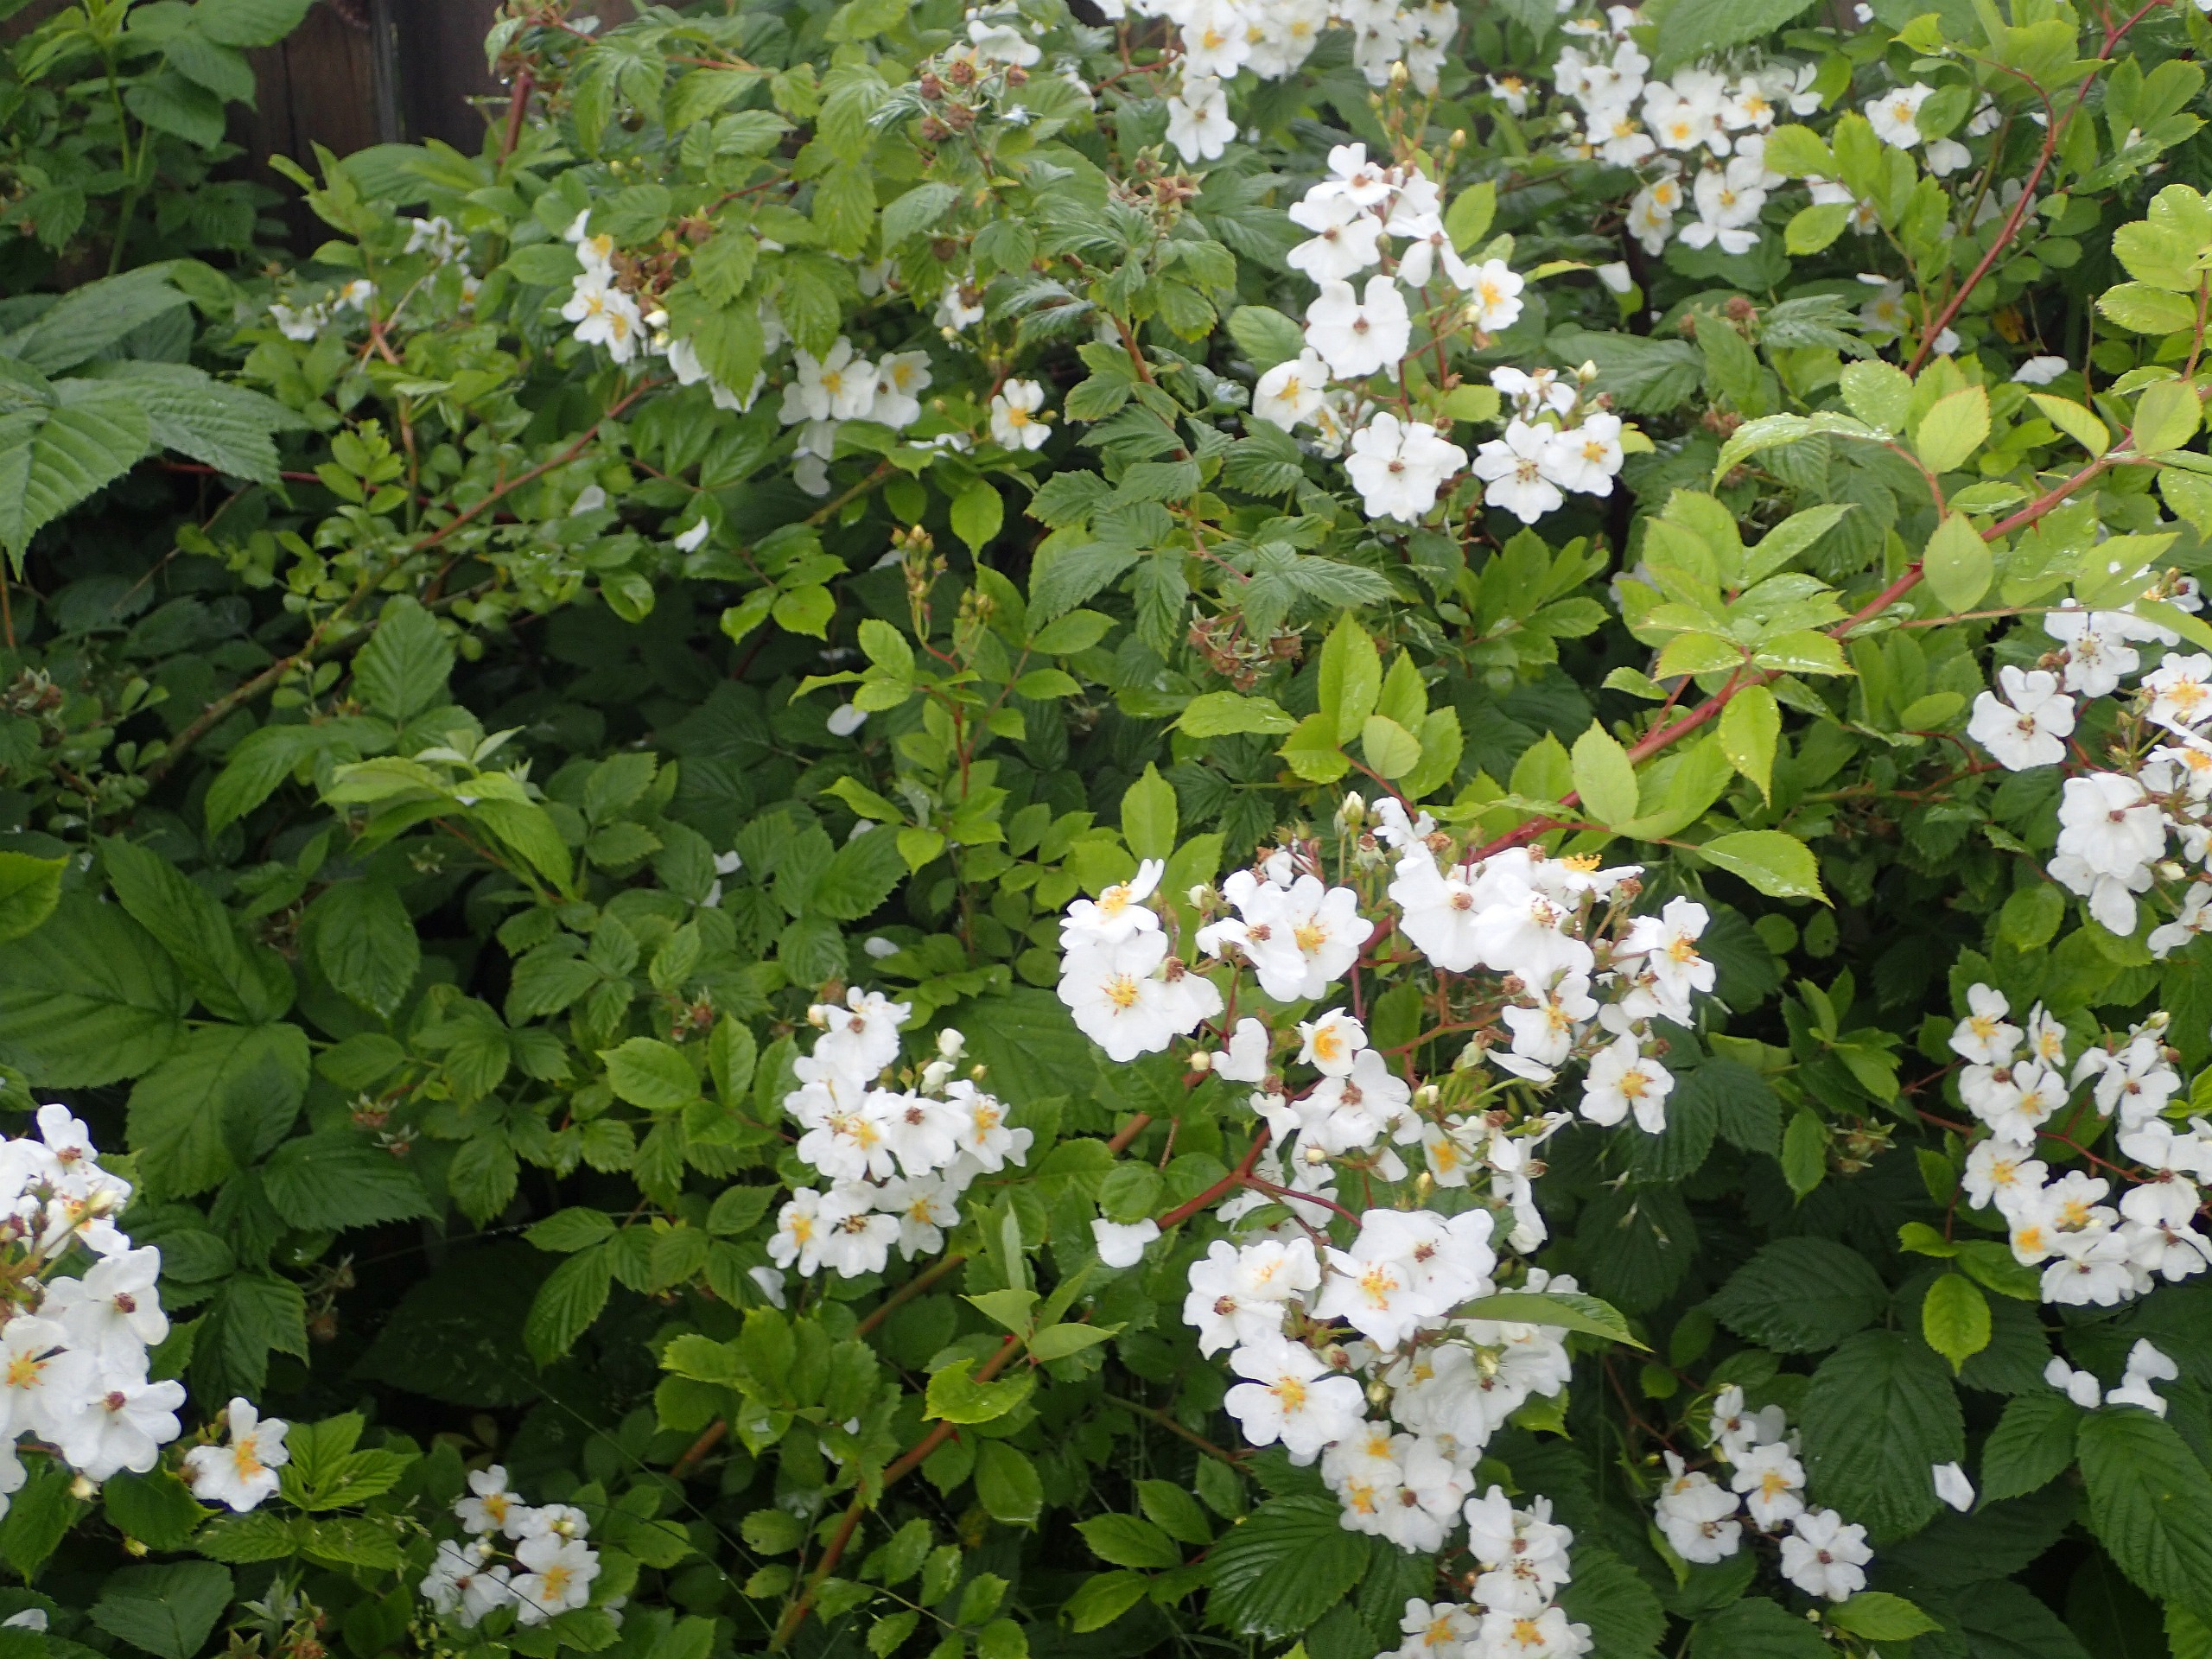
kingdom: Plantae
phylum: Tracheophyta
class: Magnoliopsida
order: Rosales
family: Rosaceae
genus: Rosa
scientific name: Rosa multiflora
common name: Mangeblomstret rose
